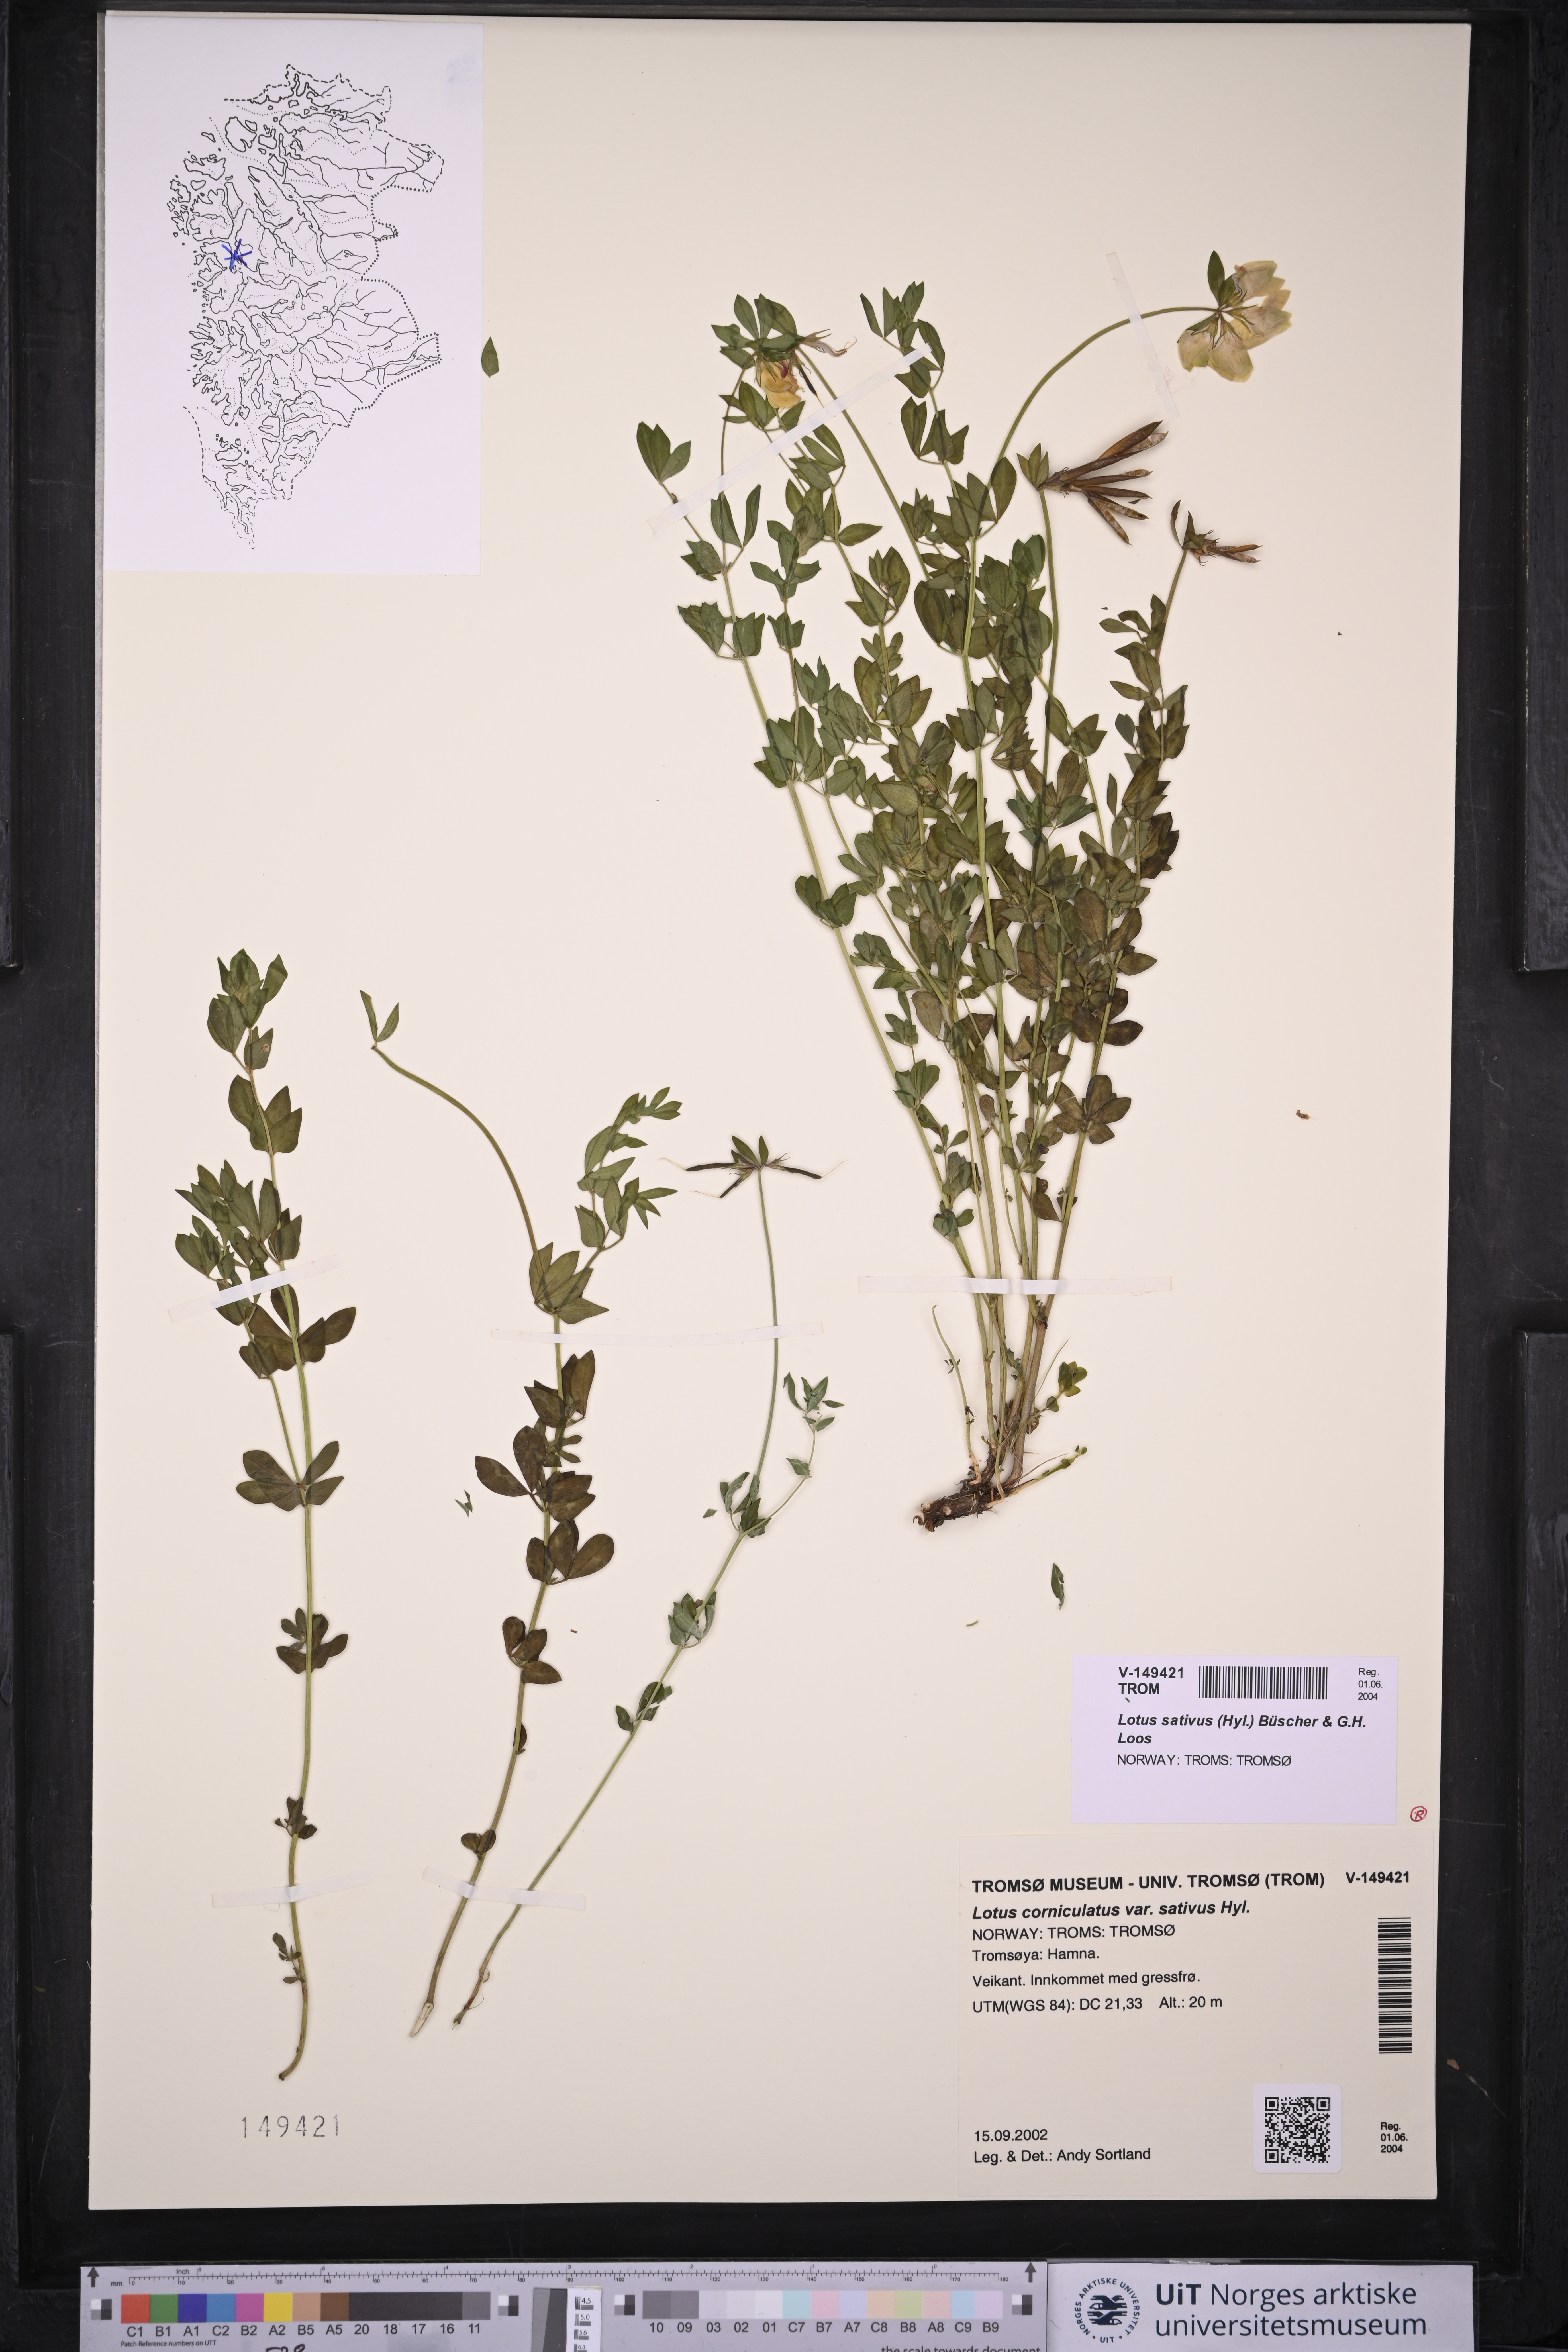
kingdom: Plantae
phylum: Tracheophyta
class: Magnoliopsida
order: Fabales
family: Fabaceae
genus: Lotus
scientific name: Lotus corniculatus
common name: Common bird's-foot-trefoil
